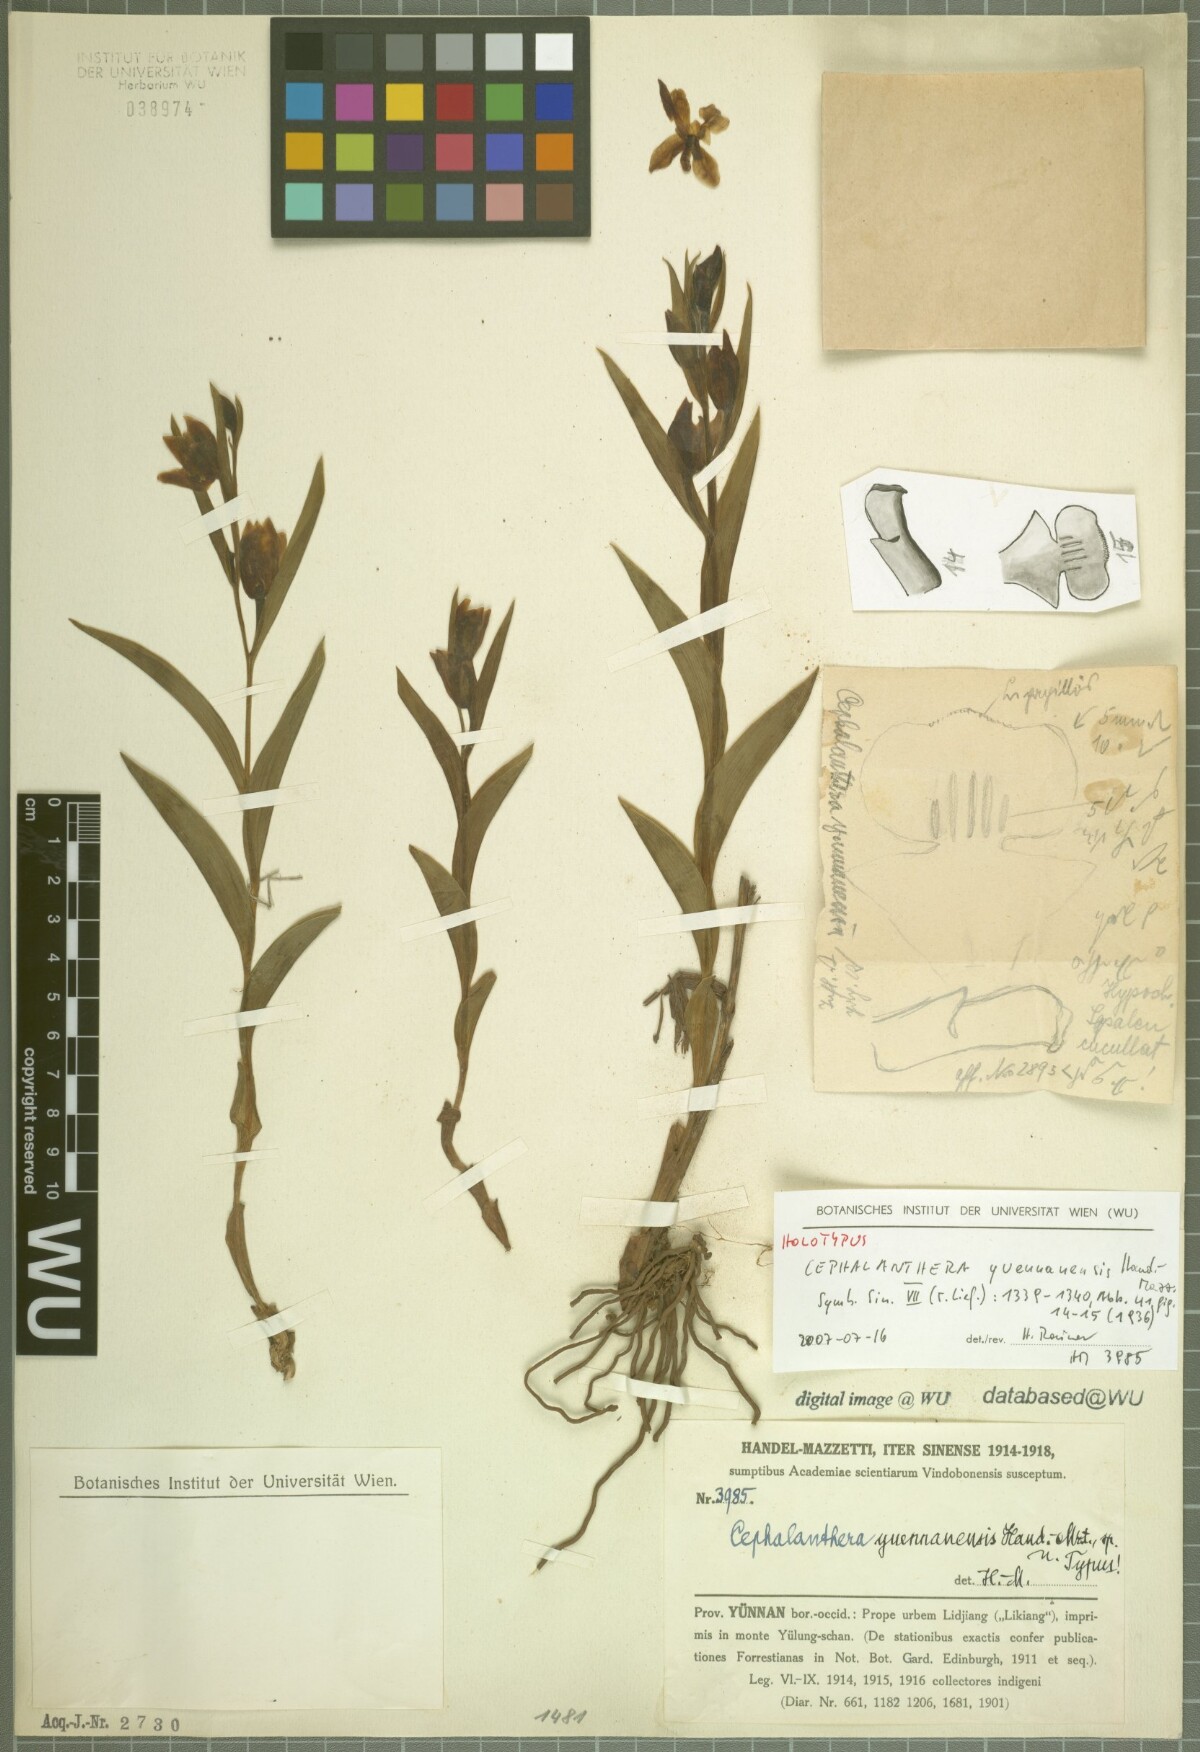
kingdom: Plantae
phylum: Tracheophyta
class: Liliopsida
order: Asparagales
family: Orchidaceae
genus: Cephalanthera
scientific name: Cephalanthera damasonium
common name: White helleborine
